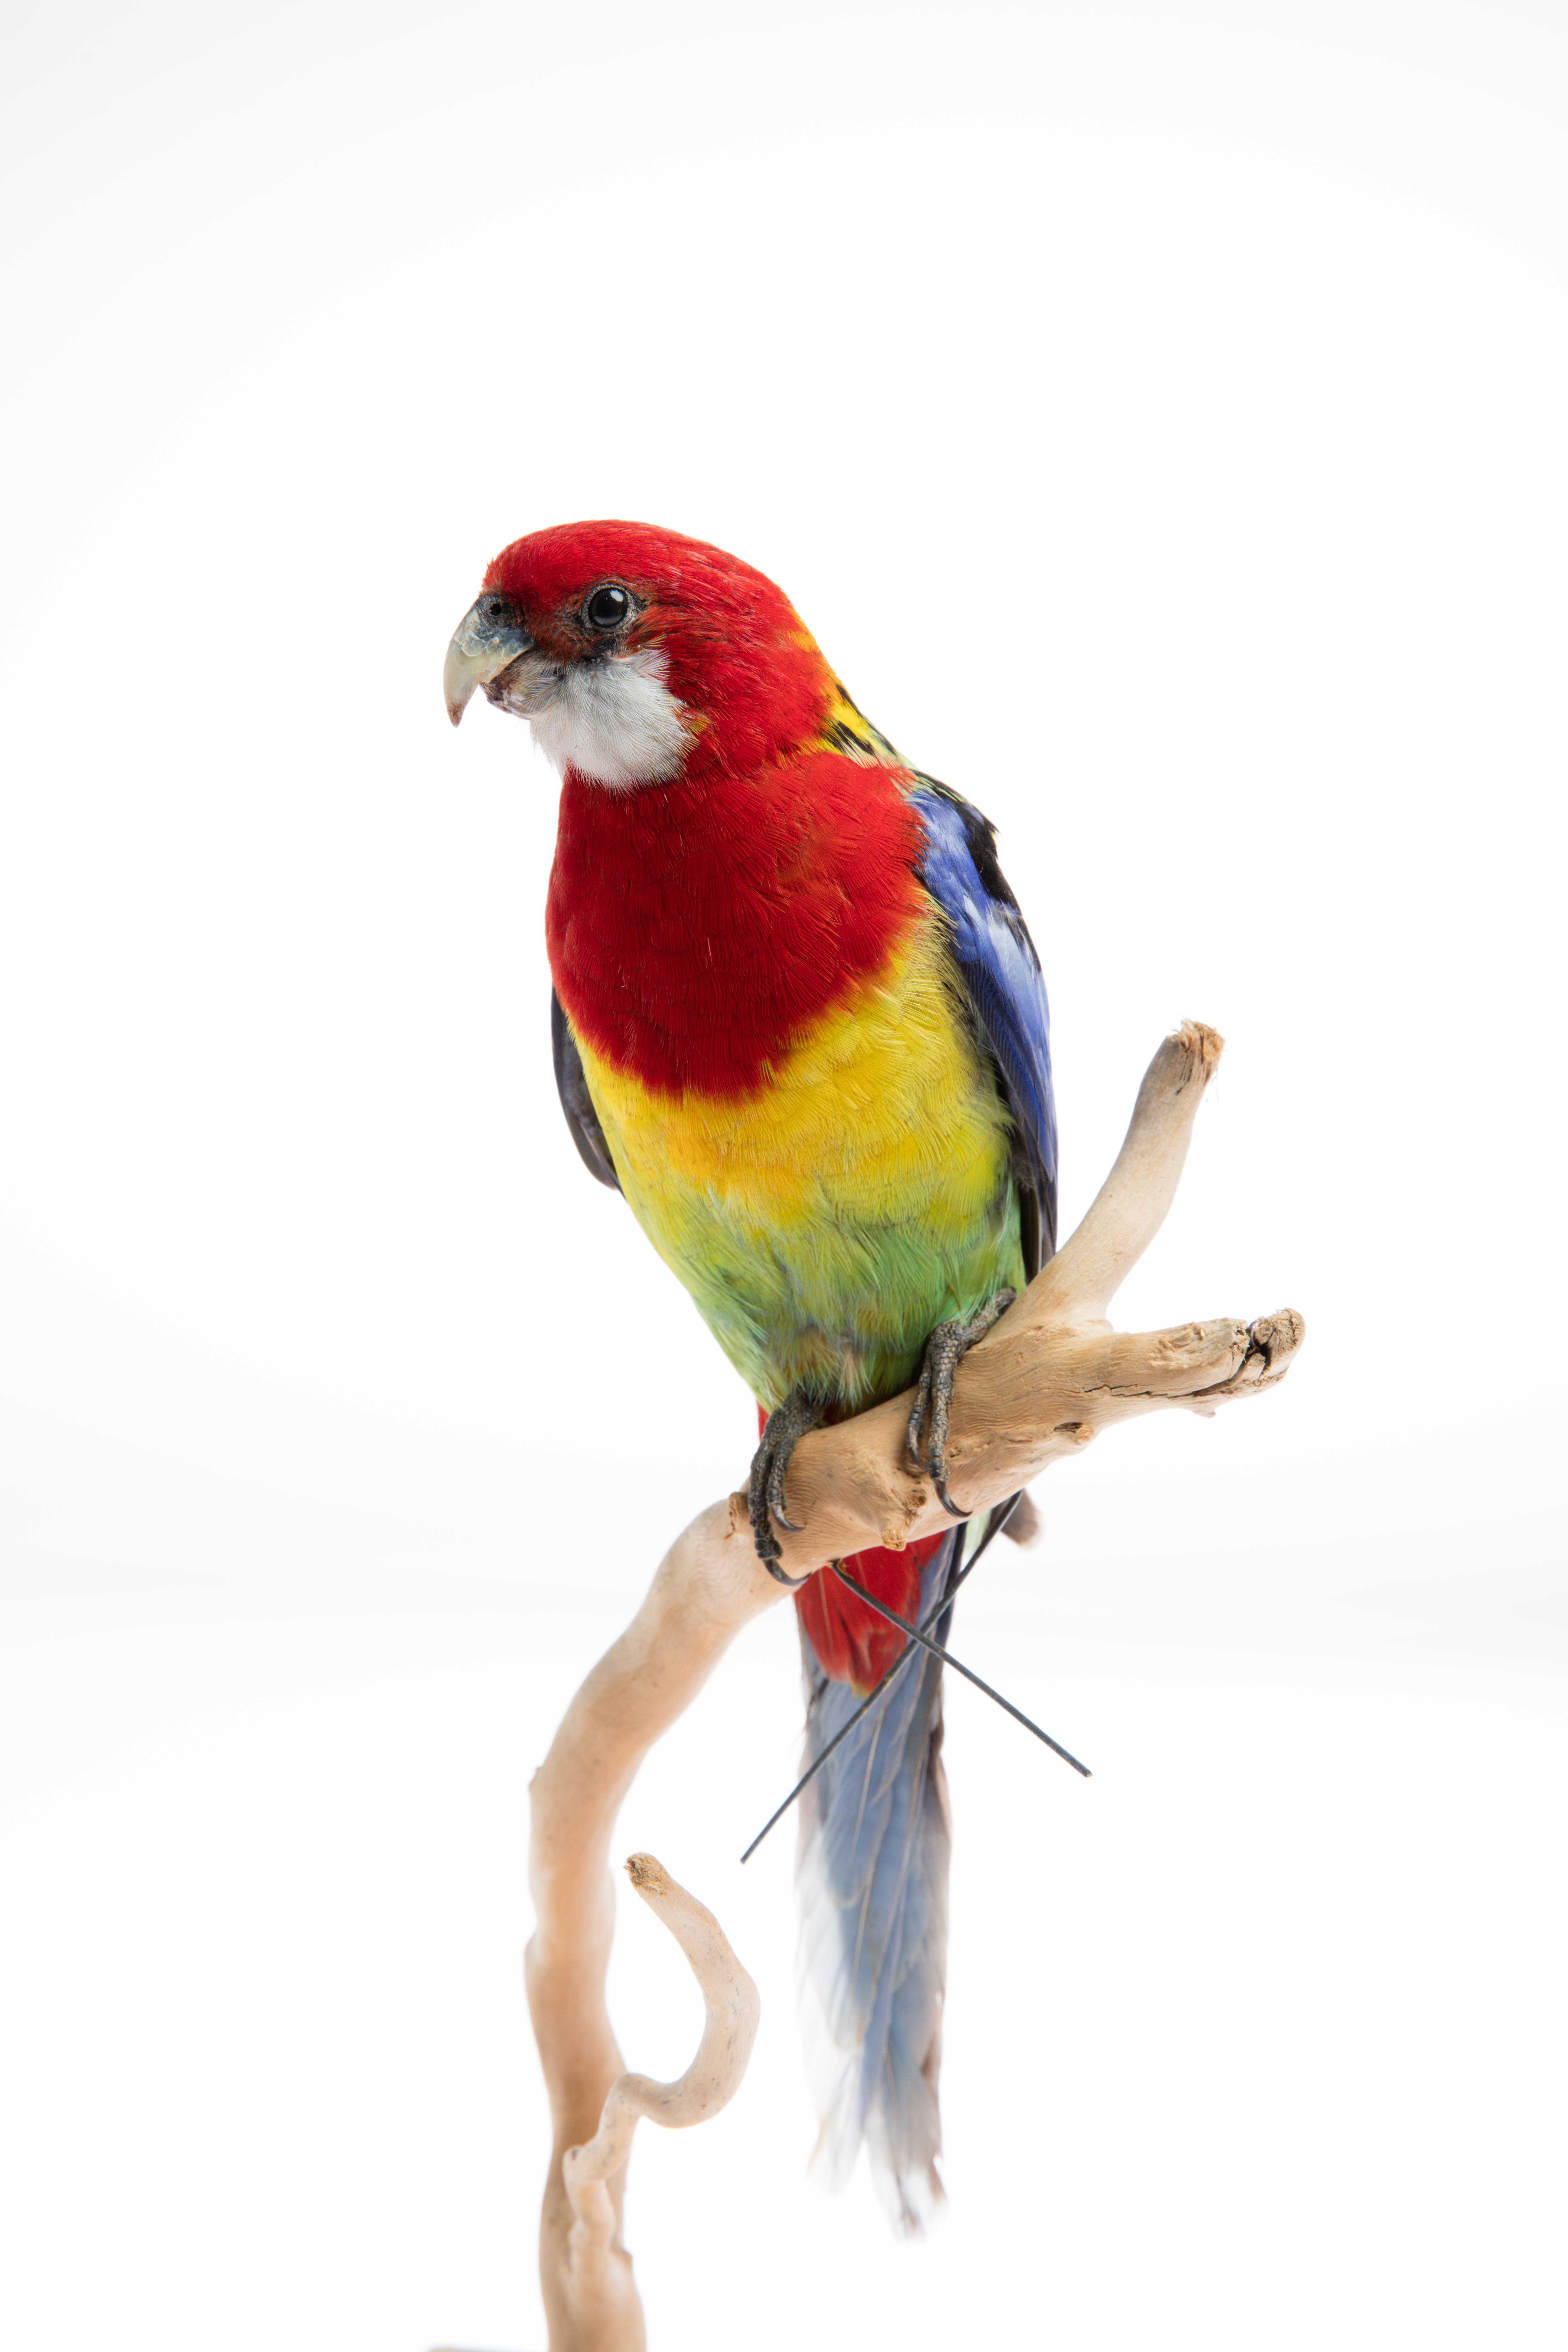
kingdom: Animalia
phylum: Chordata
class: Aves
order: Psittaciformes
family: Psittacidae
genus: Platycercus
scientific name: Platycercus eximius
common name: Eastern rosella
